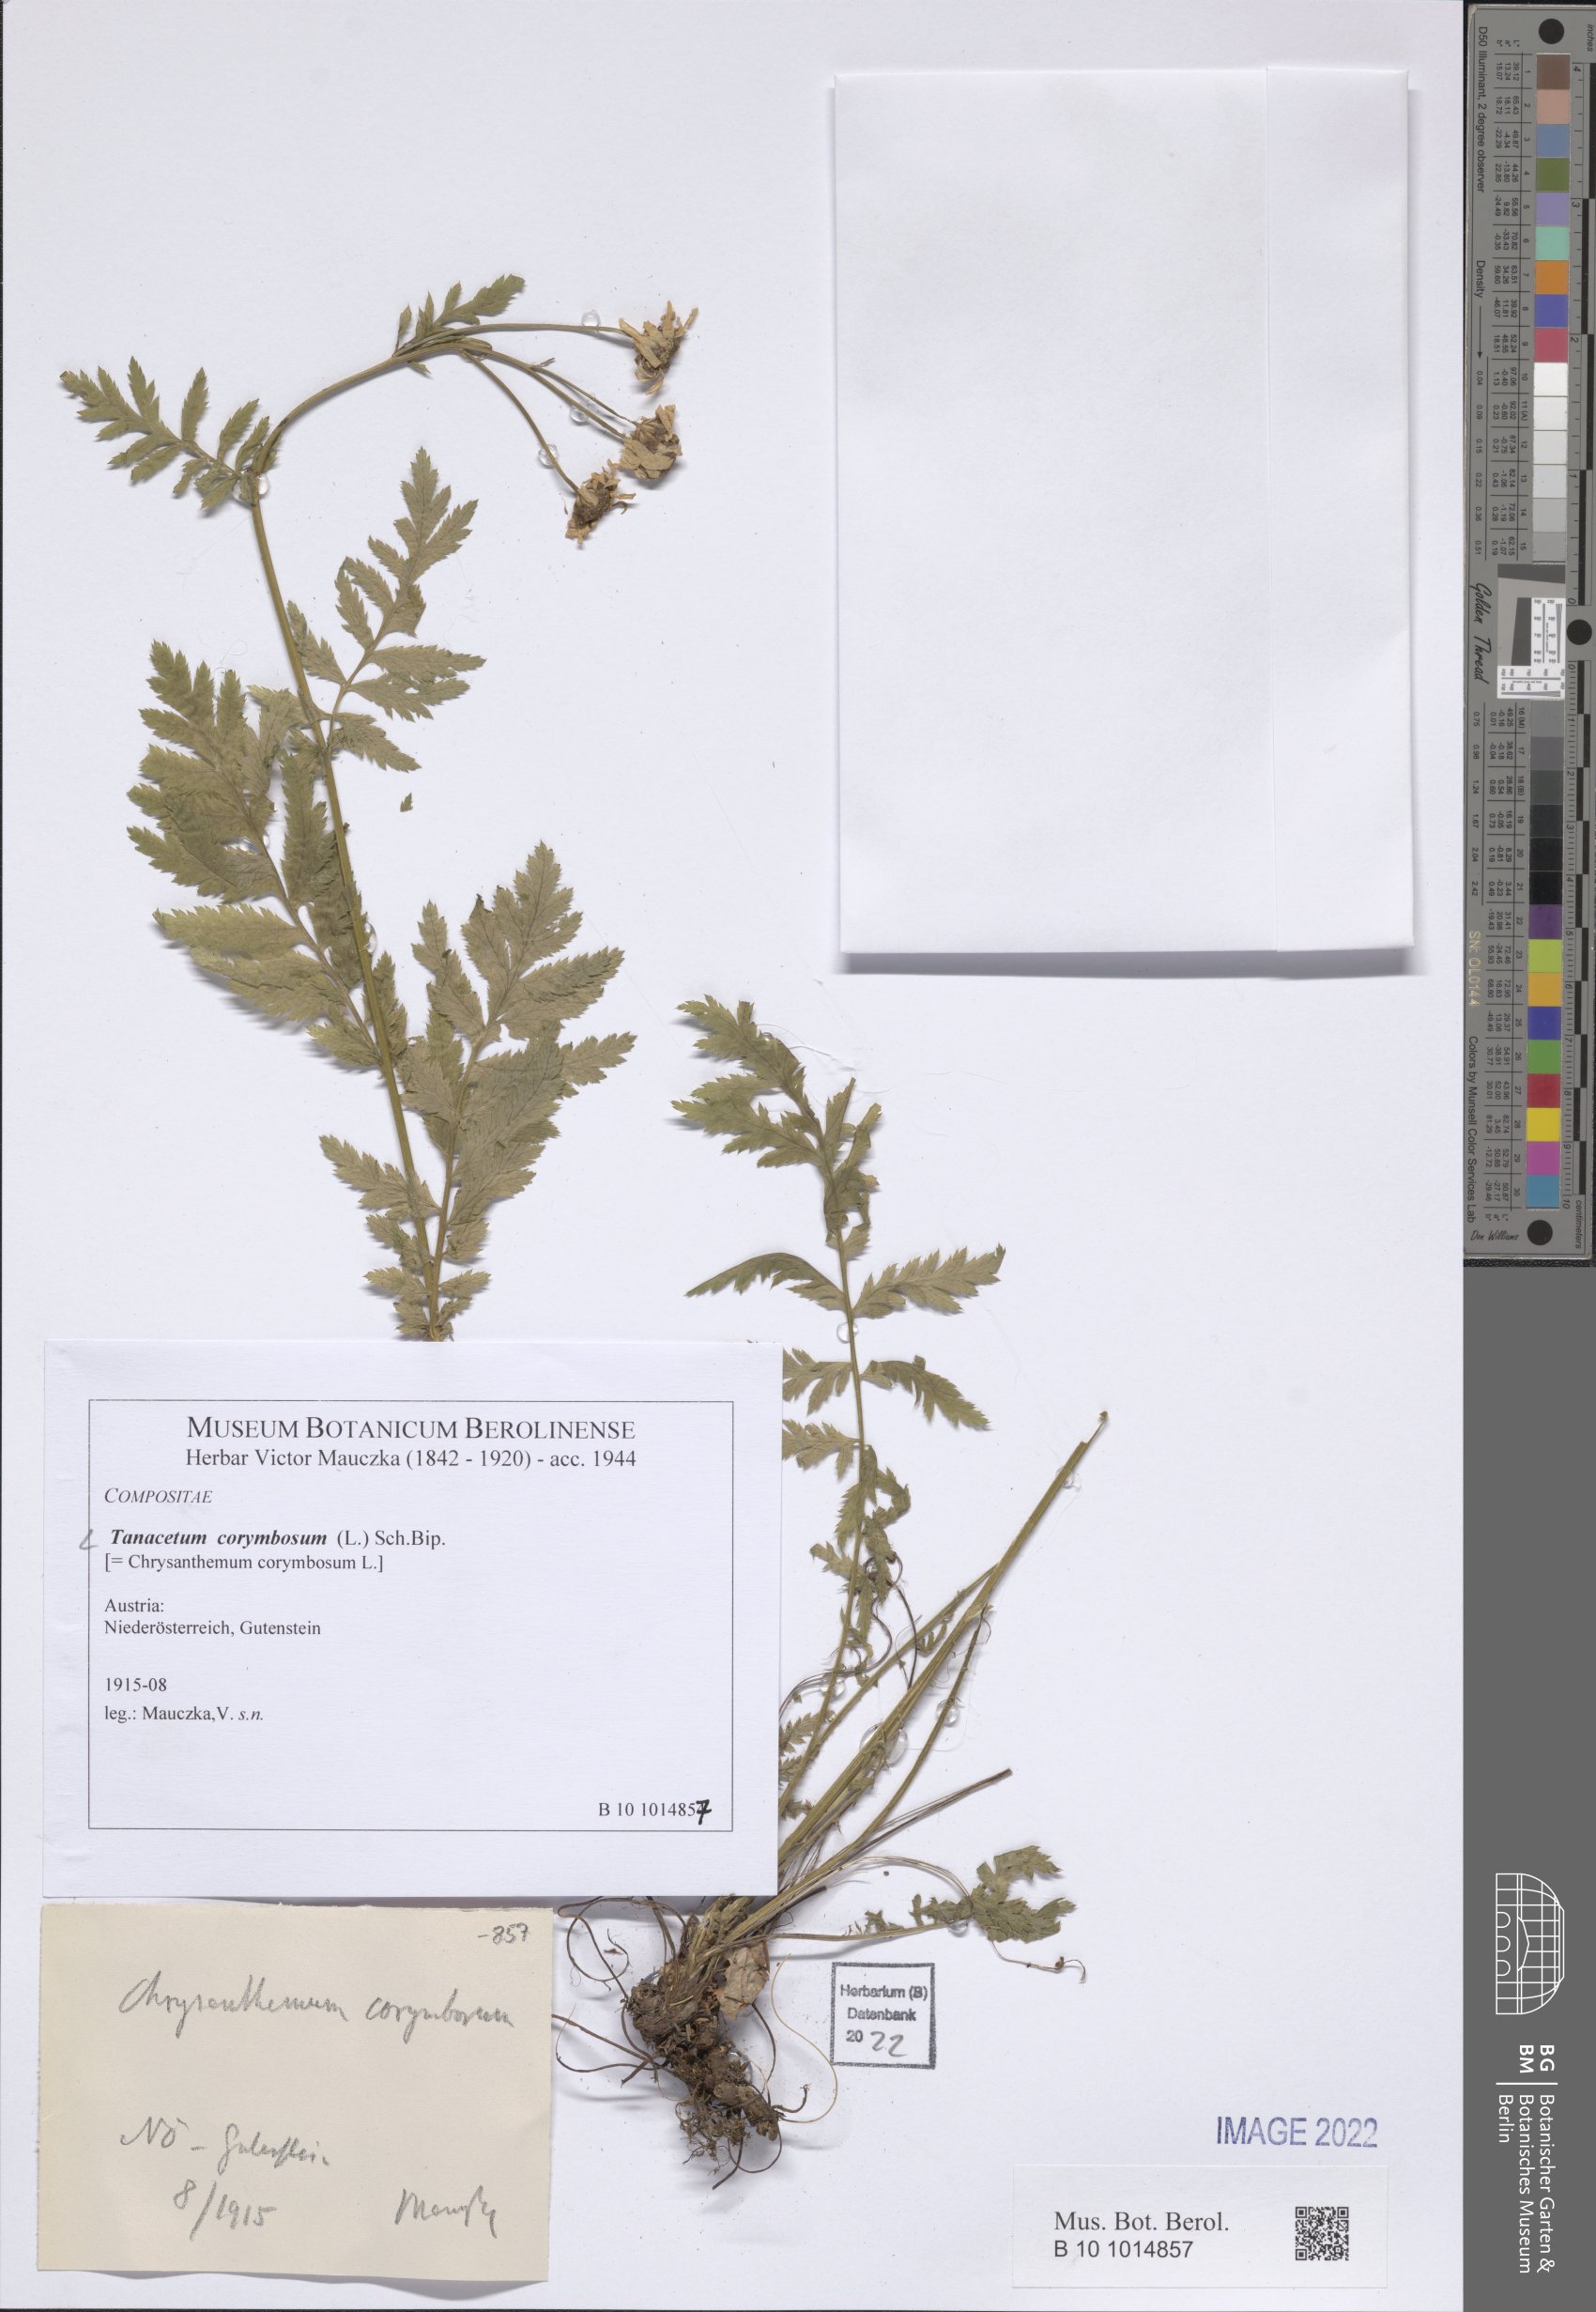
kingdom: Plantae
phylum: Tracheophyta
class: Magnoliopsida
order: Asterales
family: Asteraceae
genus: Tanacetum
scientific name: Tanacetum corymbosum
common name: Scentless feverfew
